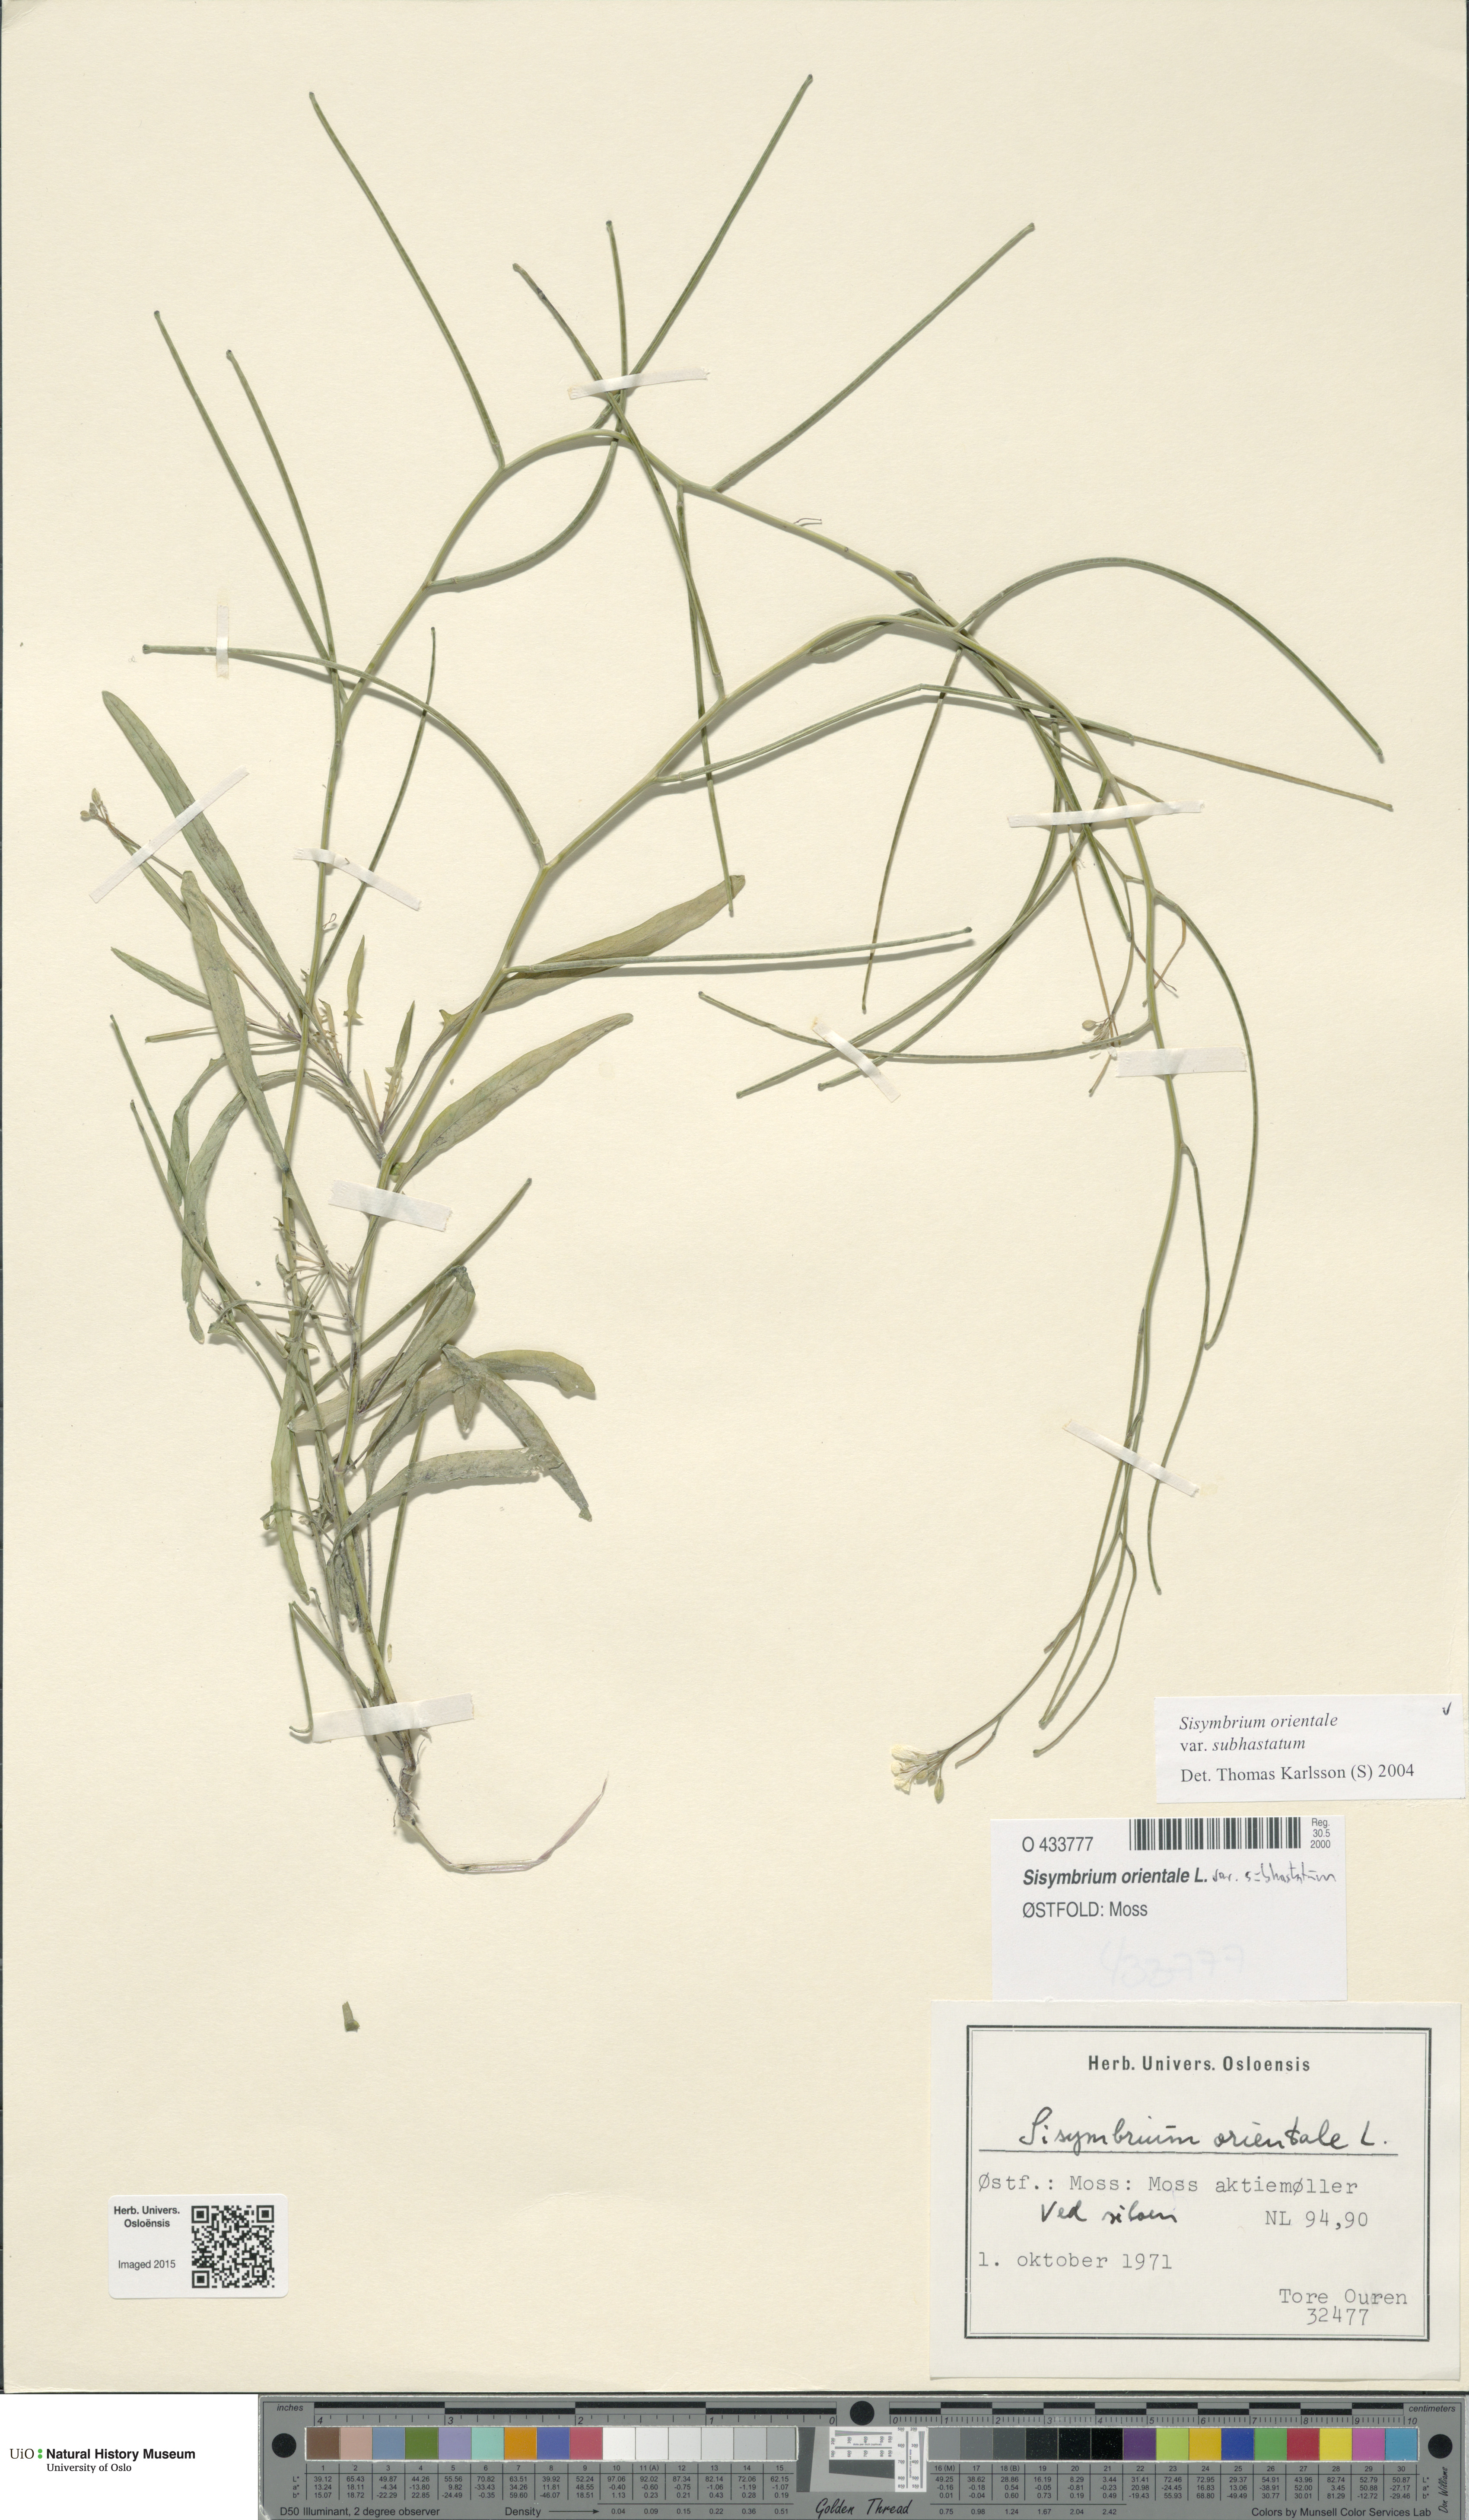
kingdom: Plantae
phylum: Tracheophyta
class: Magnoliopsida
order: Brassicales
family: Brassicaceae
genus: Sisymbrium
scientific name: Sisymbrium orientale
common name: Eastern rocket
